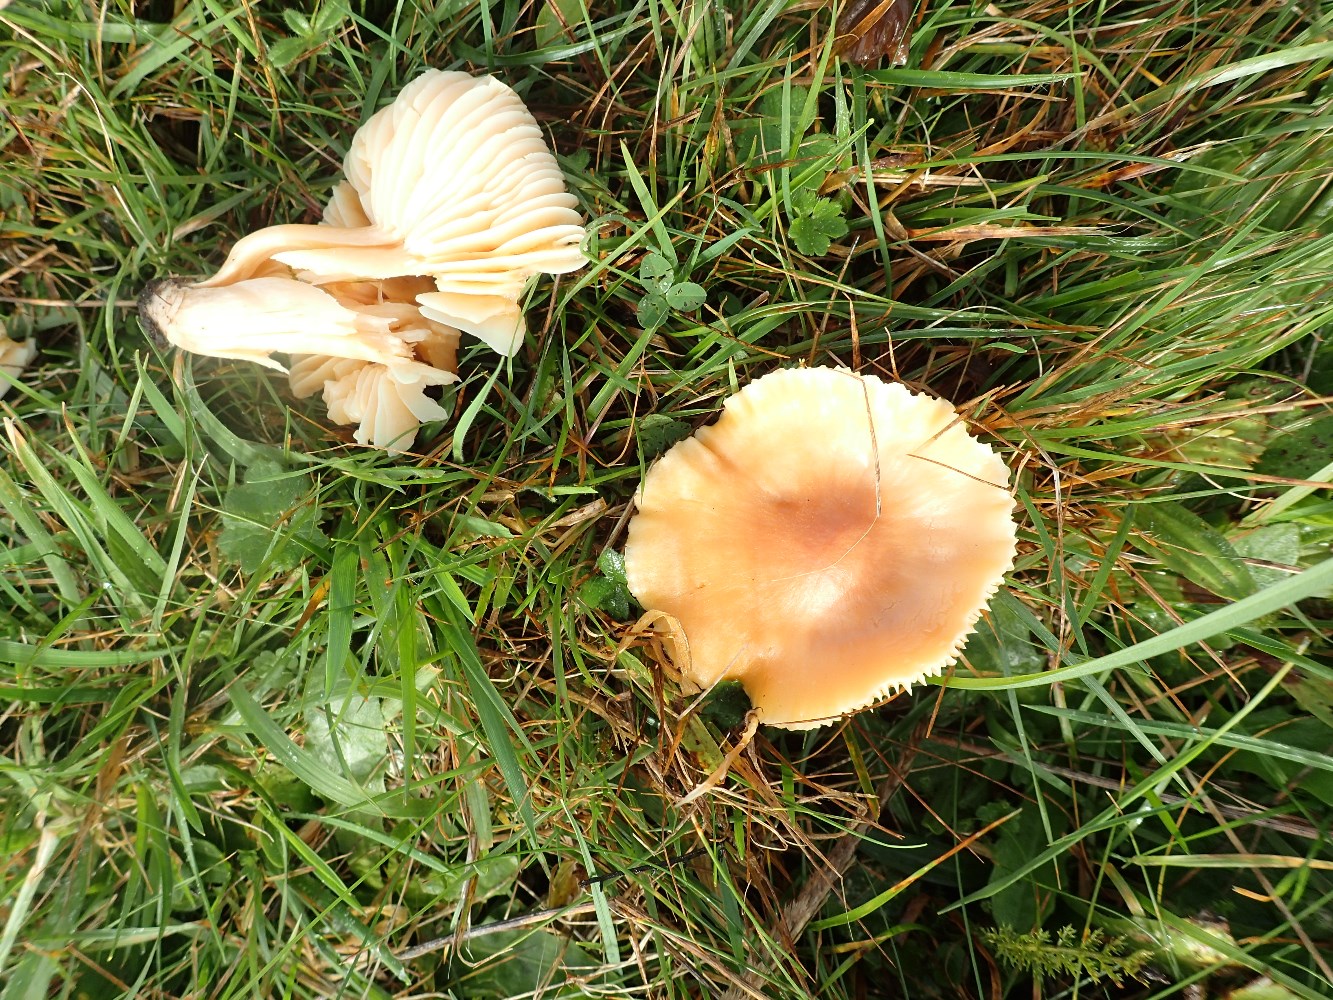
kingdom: Fungi
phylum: Basidiomycota
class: Agaricomycetes
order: Agaricales
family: Hygrophoraceae
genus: Cuphophyllus
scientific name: Cuphophyllus pratensis
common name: eng-vokshat
